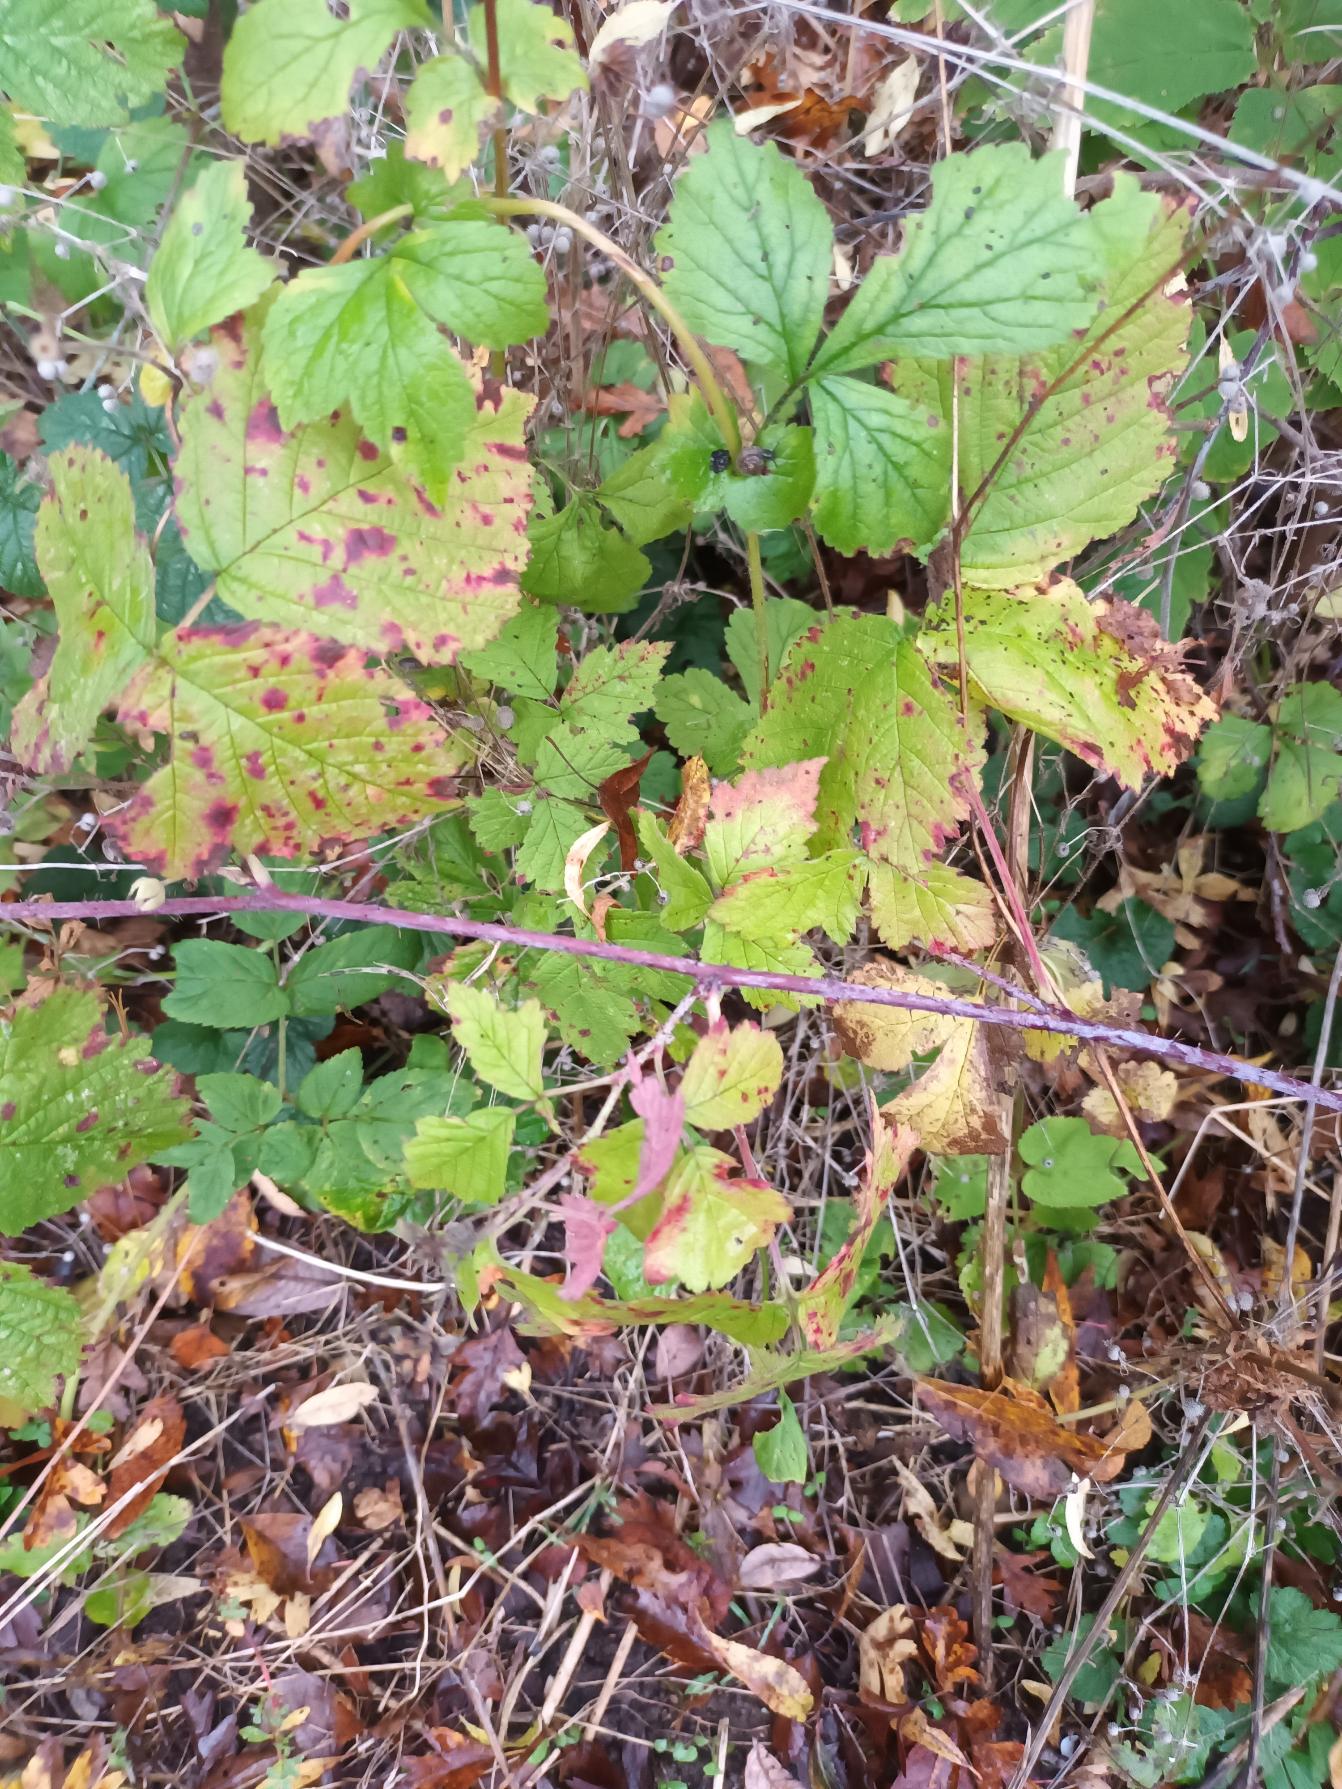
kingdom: Plantae
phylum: Tracheophyta
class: Magnoliopsida
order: Rosales
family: Rosaceae
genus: Rubus
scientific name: Rubus caesius
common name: Korbær
